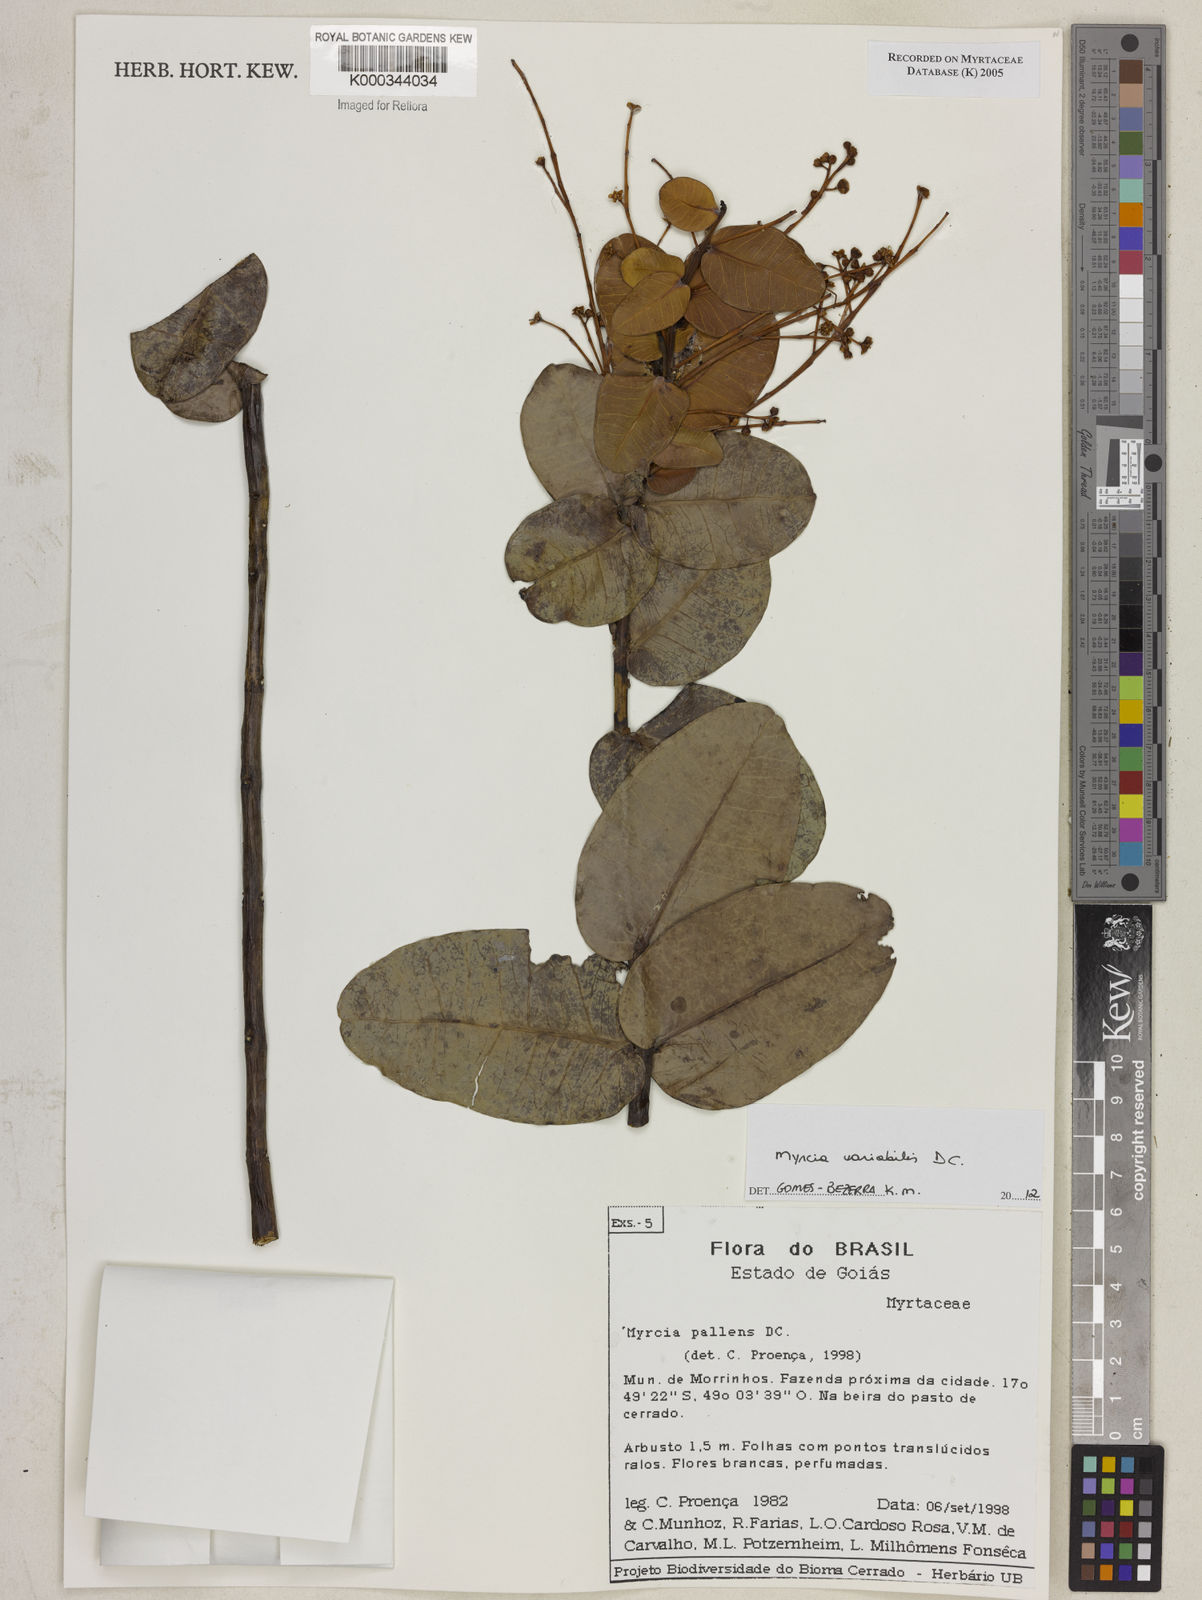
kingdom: Plantae
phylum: Tracheophyta
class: Magnoliopsida
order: Myrtales
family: Myrtaceae
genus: Myrcia
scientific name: Myrcia guianensis
